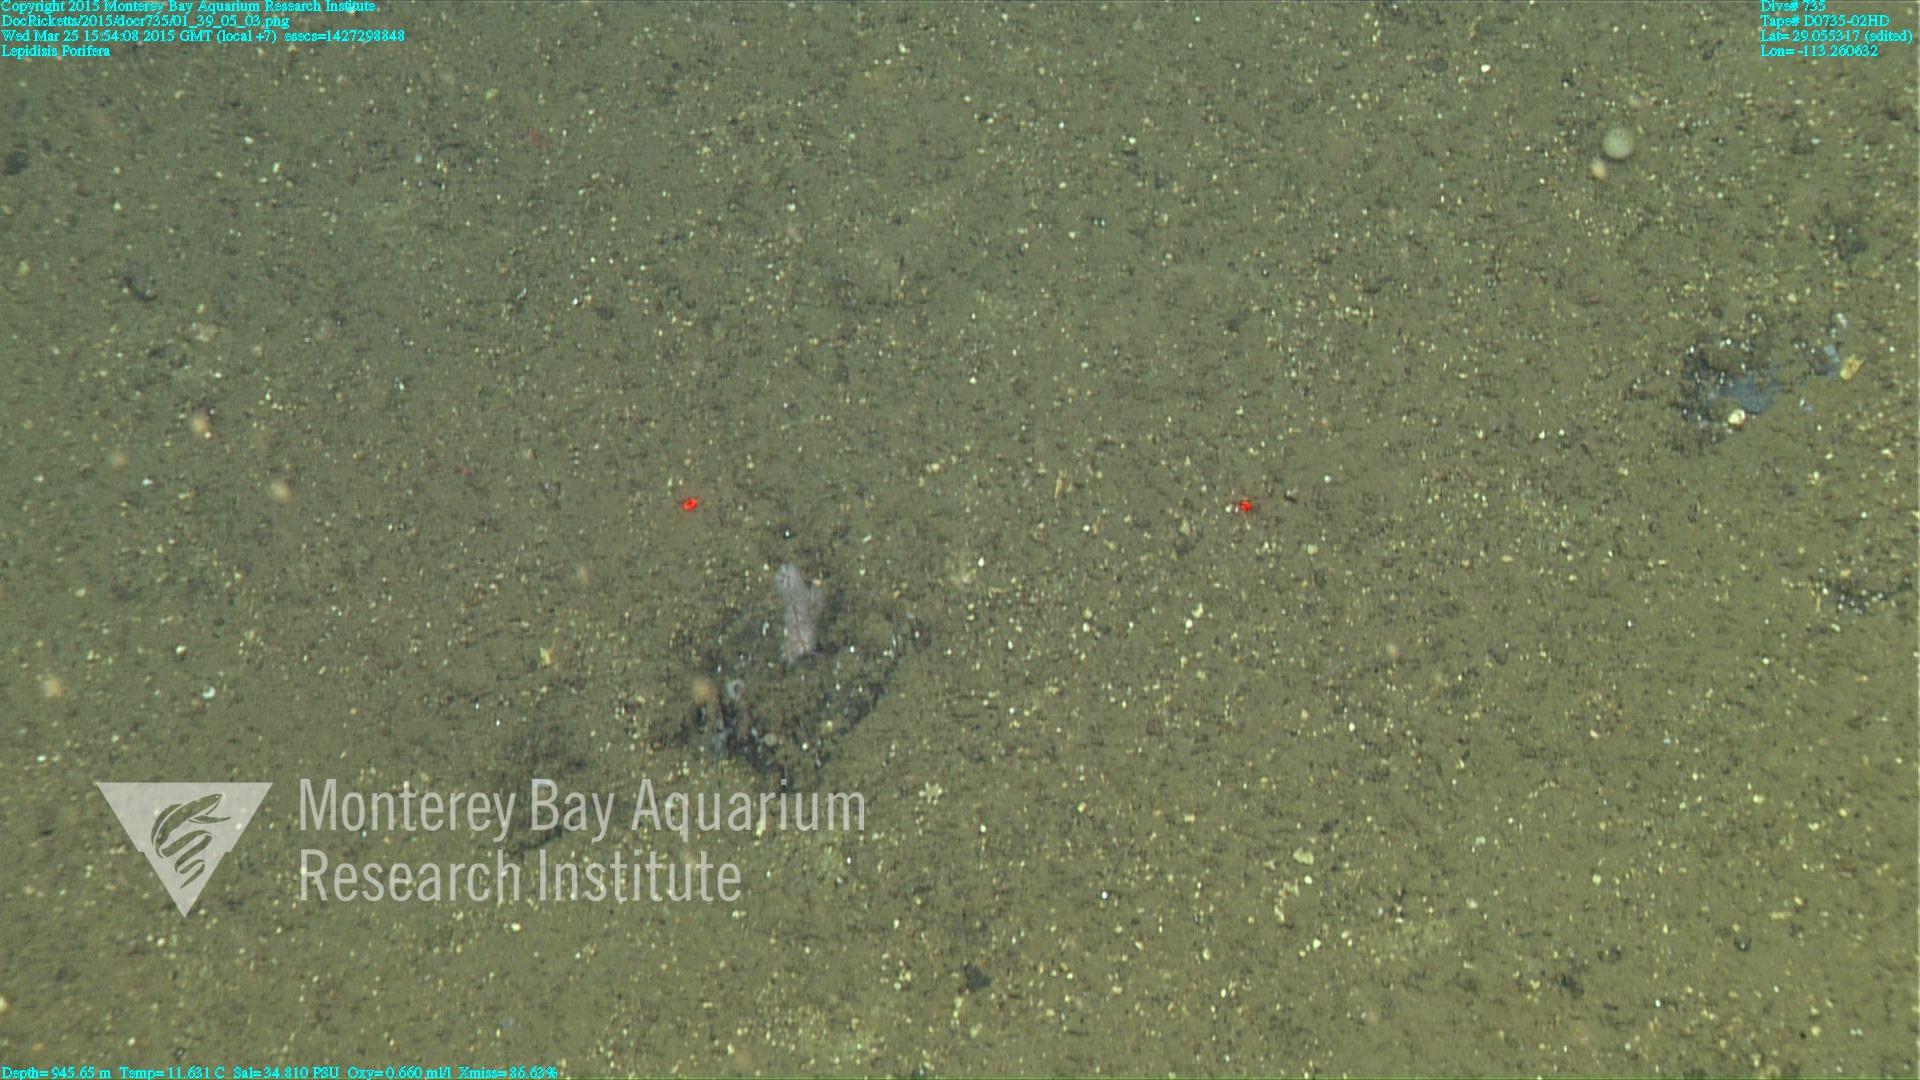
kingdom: Animalia
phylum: Cnidaria
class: Anthozoa
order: Scleralcyonacea
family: Keratoisididae
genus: Lepidisis
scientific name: Lepidisis
